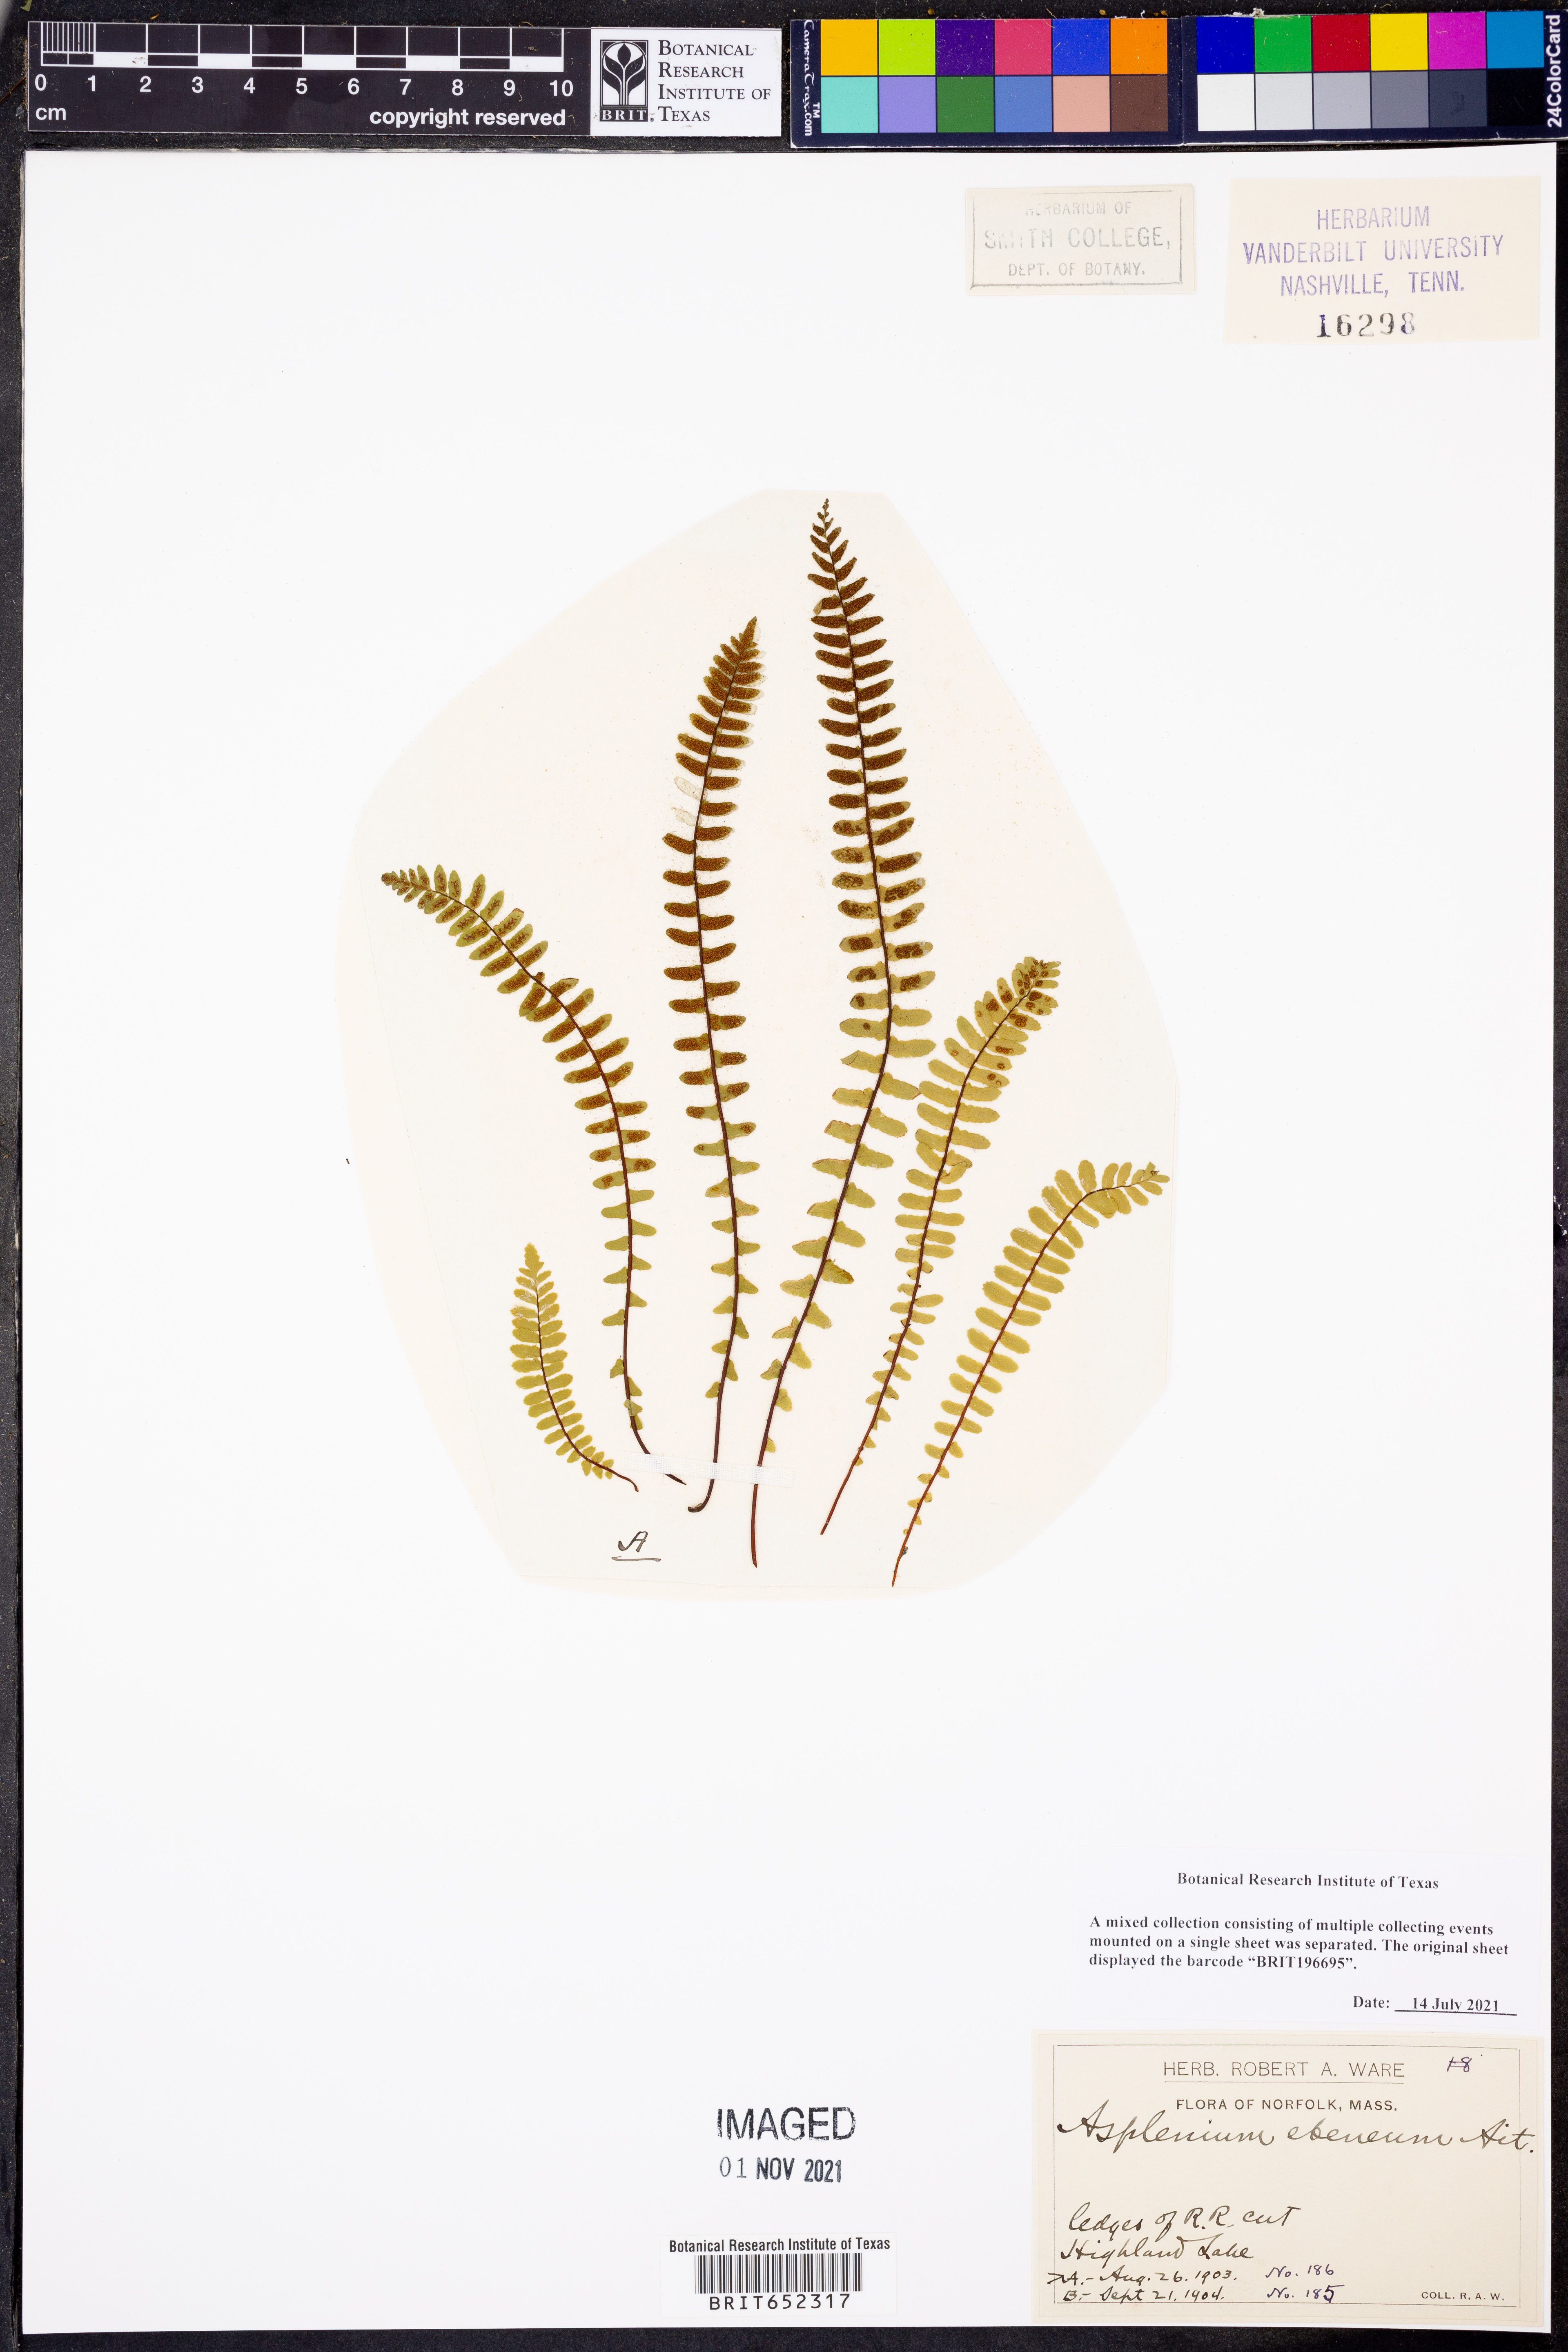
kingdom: Plantae
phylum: Tracheophyta
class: Polypodiopsida
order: Polypodiales
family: Aspleniaceae
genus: Asplenium
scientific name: Asplenium ebeneum
